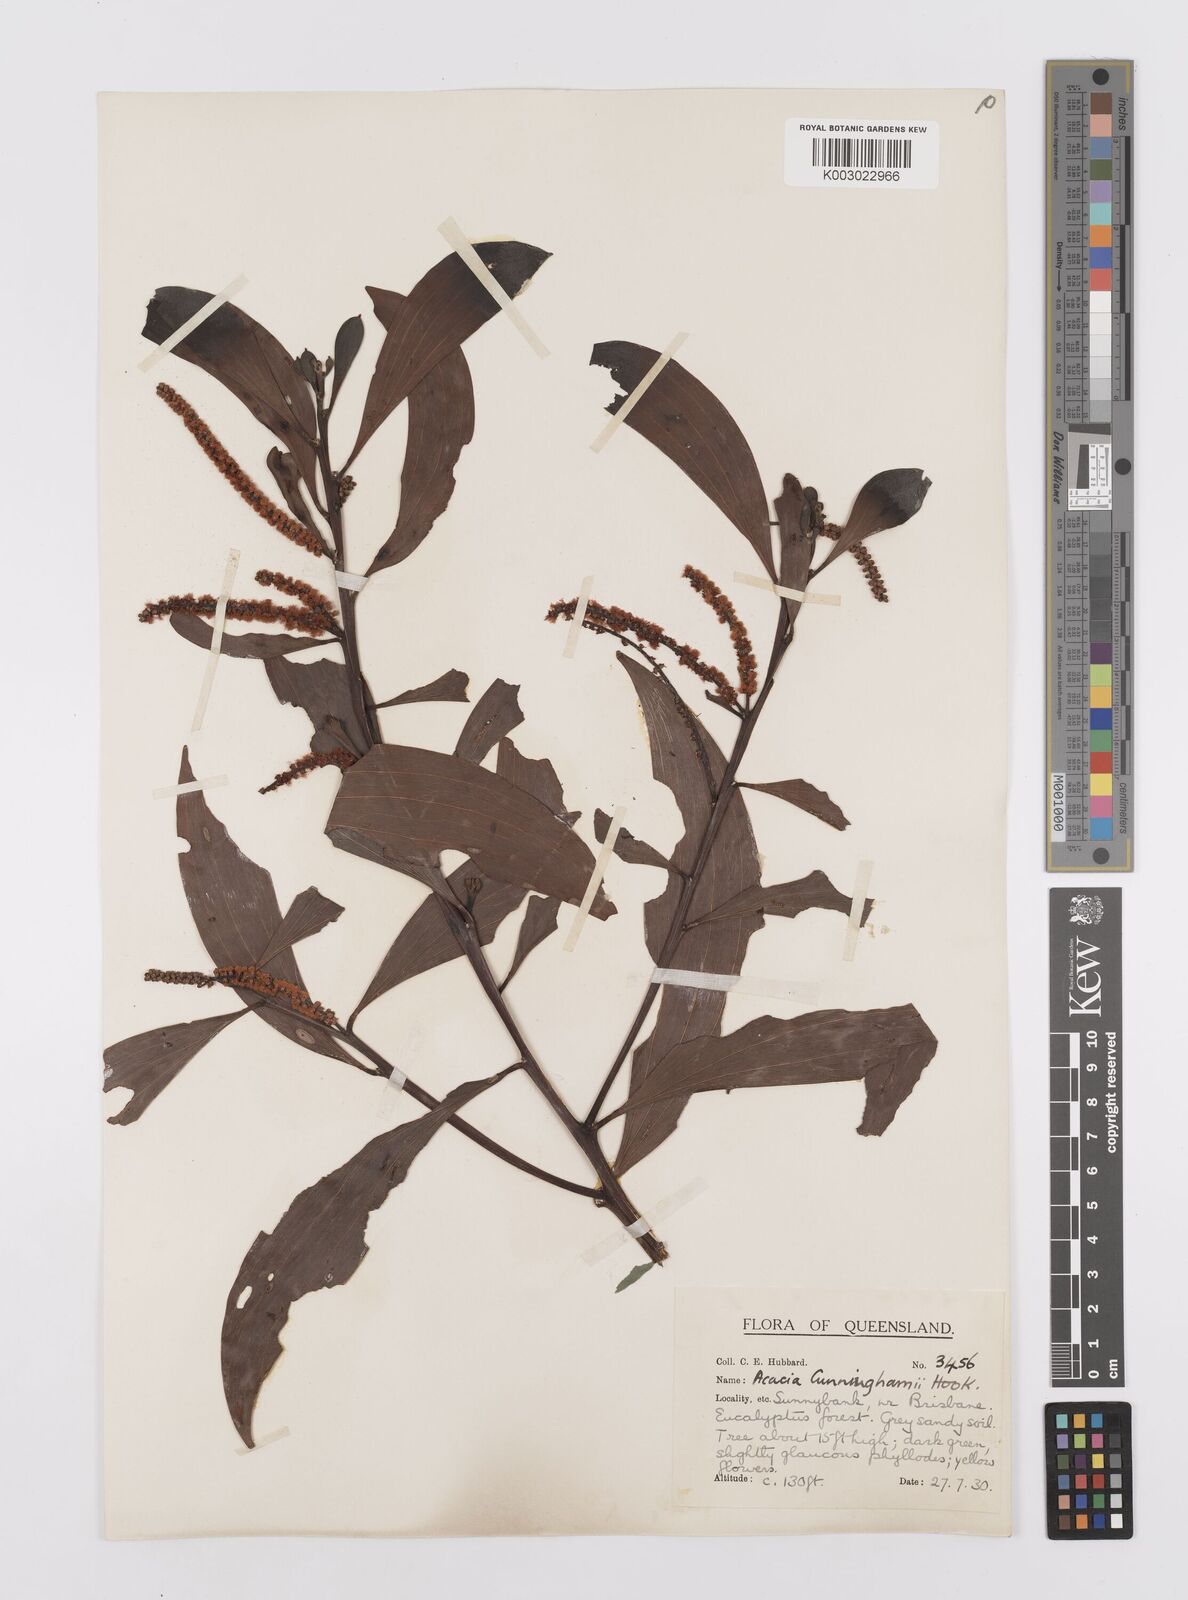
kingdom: Plantae
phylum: Tracheophyta
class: Magnoliopsida
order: Fabales
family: Fabaceae
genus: Acacia
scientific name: Acacia longispicata
